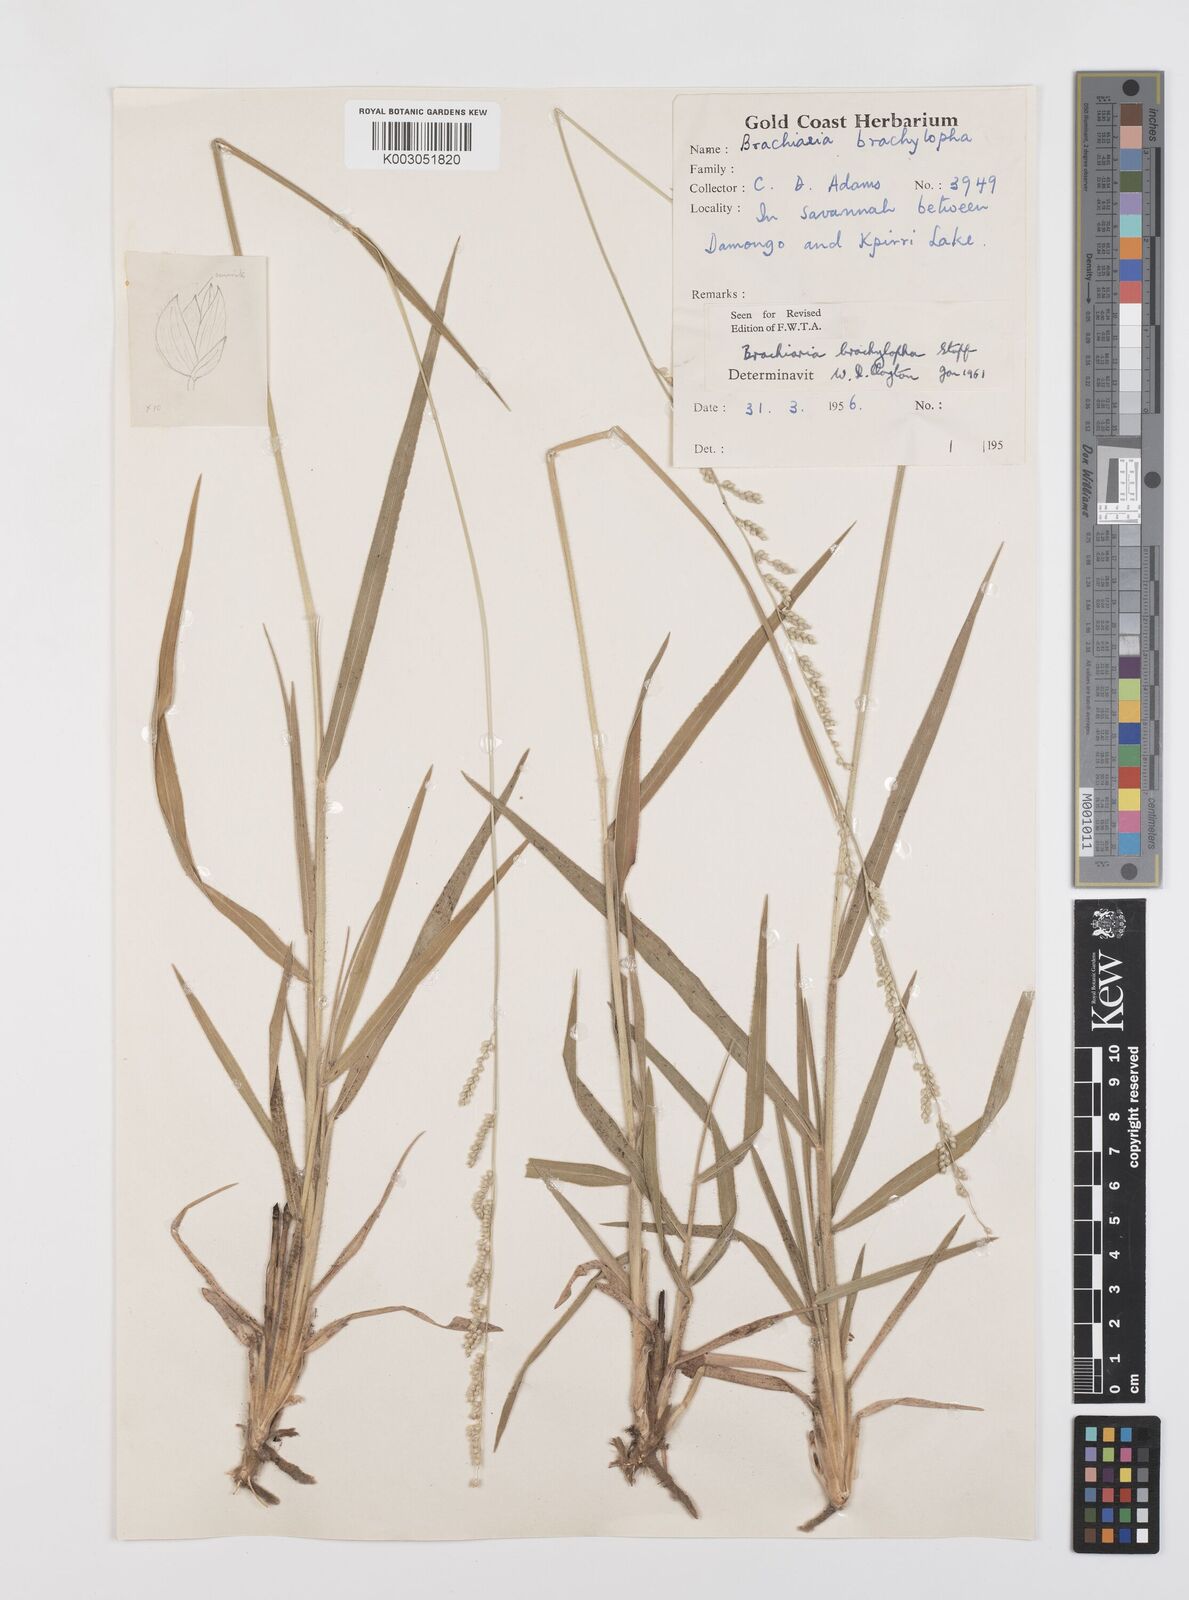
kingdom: Plantae
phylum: Tracheophyta
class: Liliopsida
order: Poales
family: Poaceae
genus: Urochloa
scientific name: Urochloa serrata
